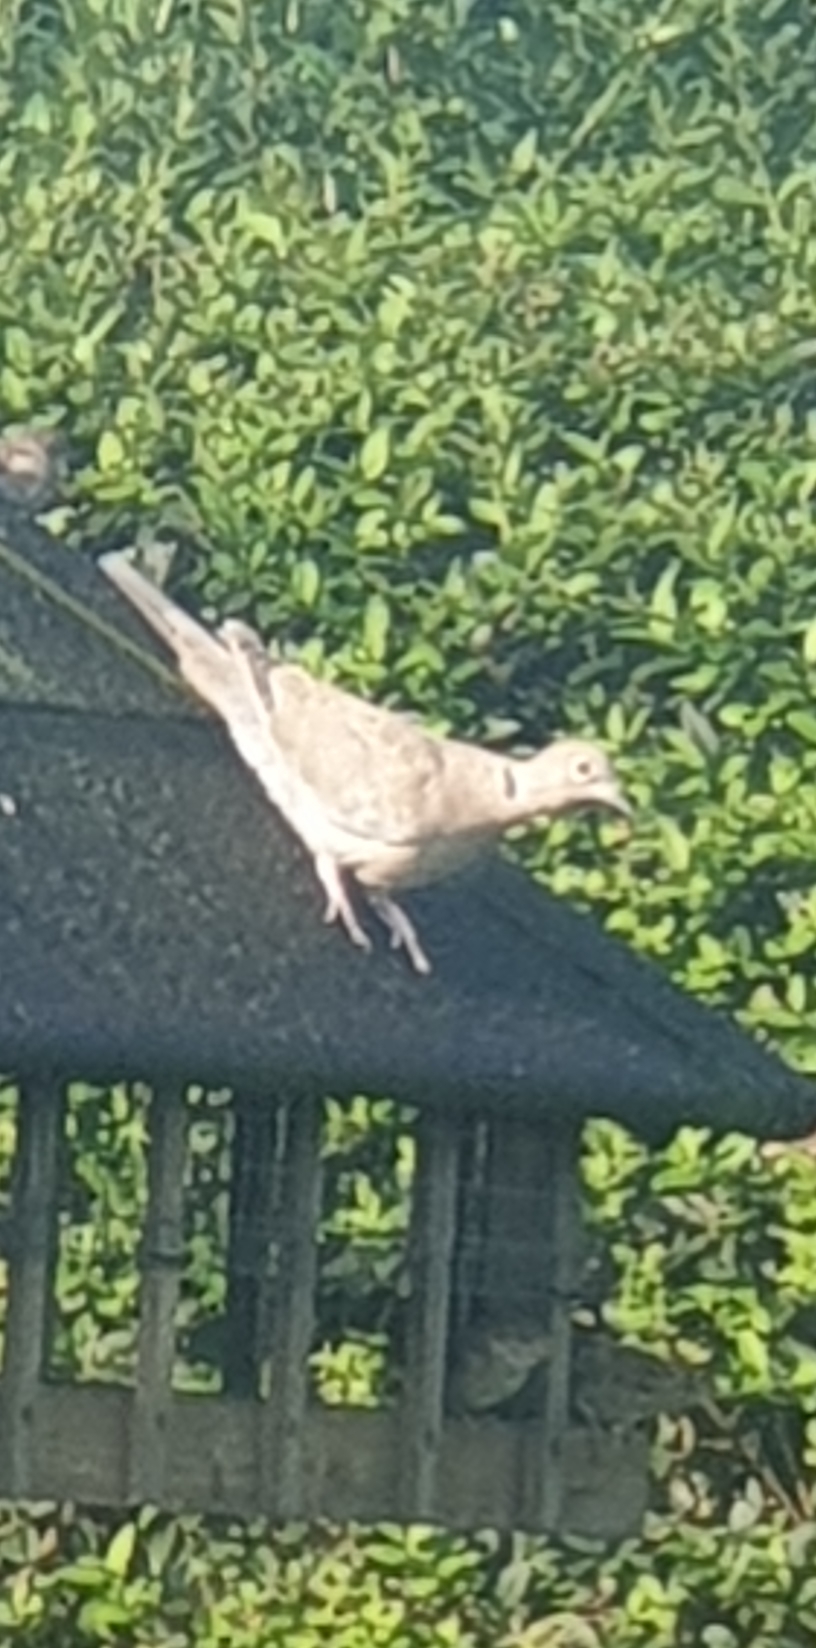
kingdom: Animalia
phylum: Chordata
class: Aves
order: Columbiformes
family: Columbidae
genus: Streptopelia
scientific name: Streptopelia decaocto
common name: Tyrkerdue
